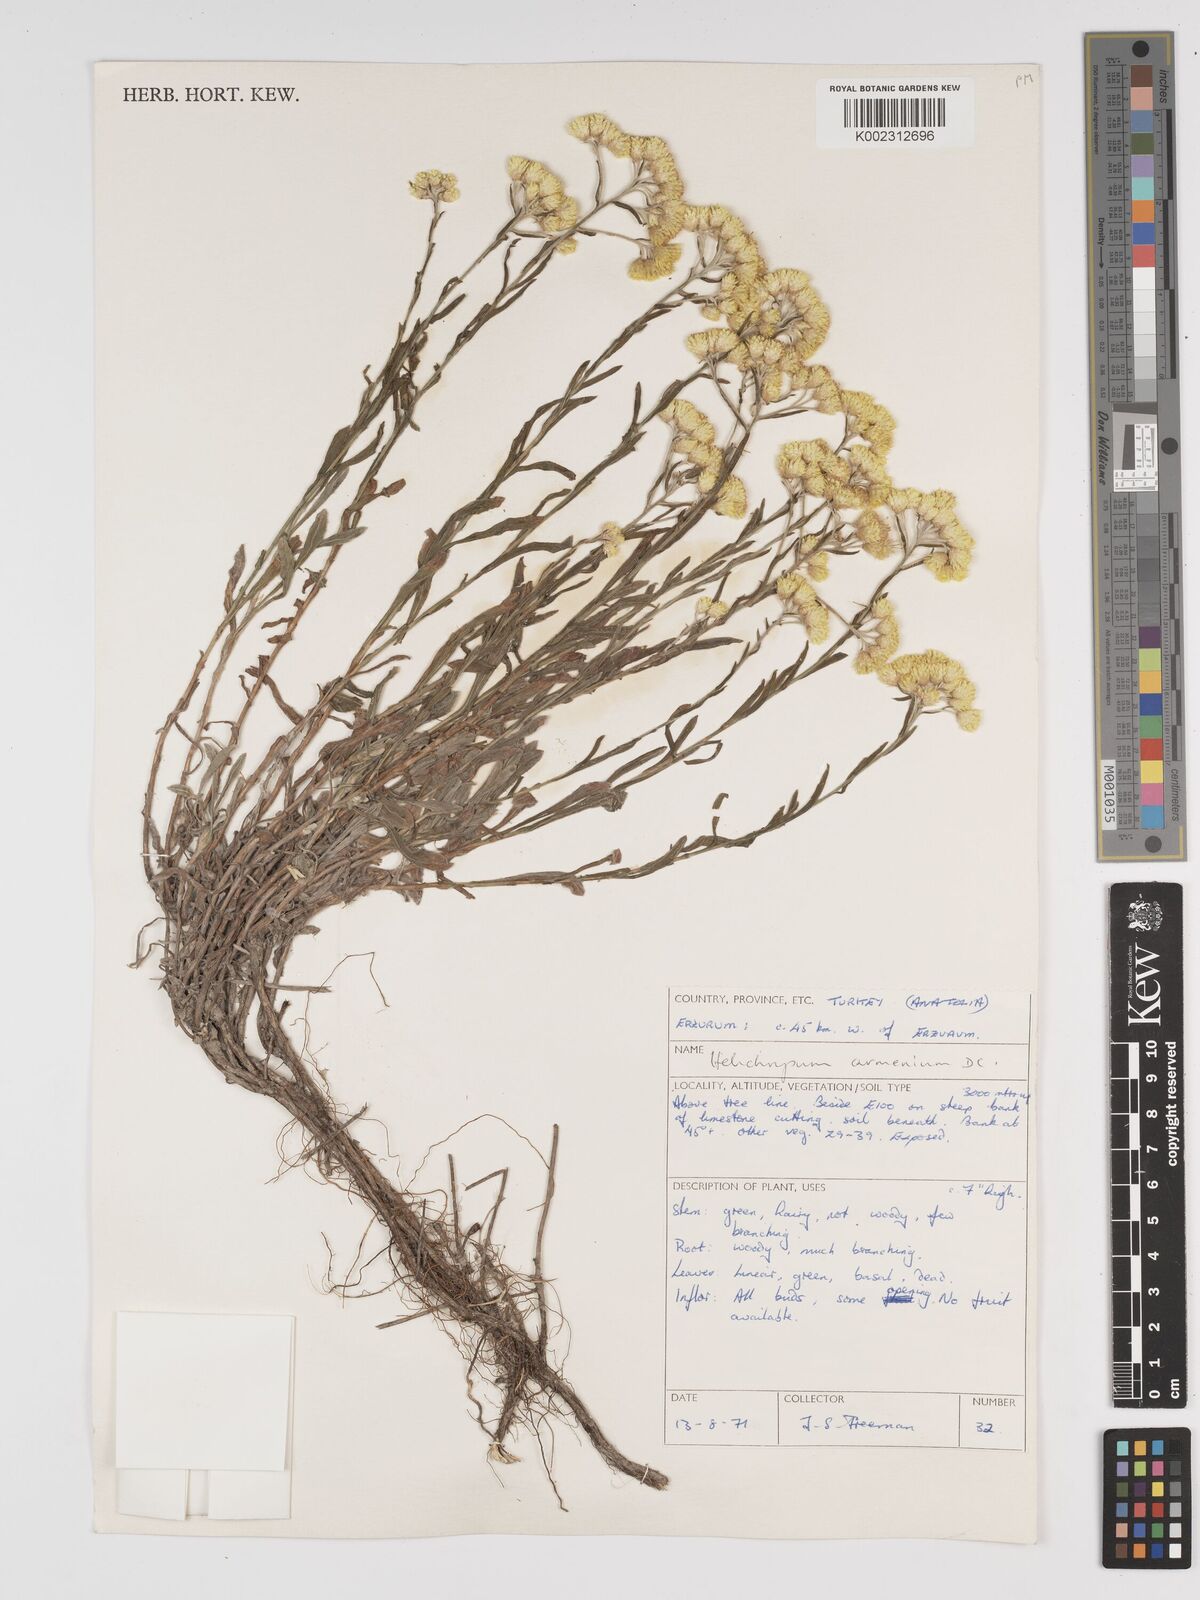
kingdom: Plantae
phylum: Tracheophyta
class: Magnoliopsida
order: Asterales
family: Asteraceae
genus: Helichrysum
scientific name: Helichrysum armenium
